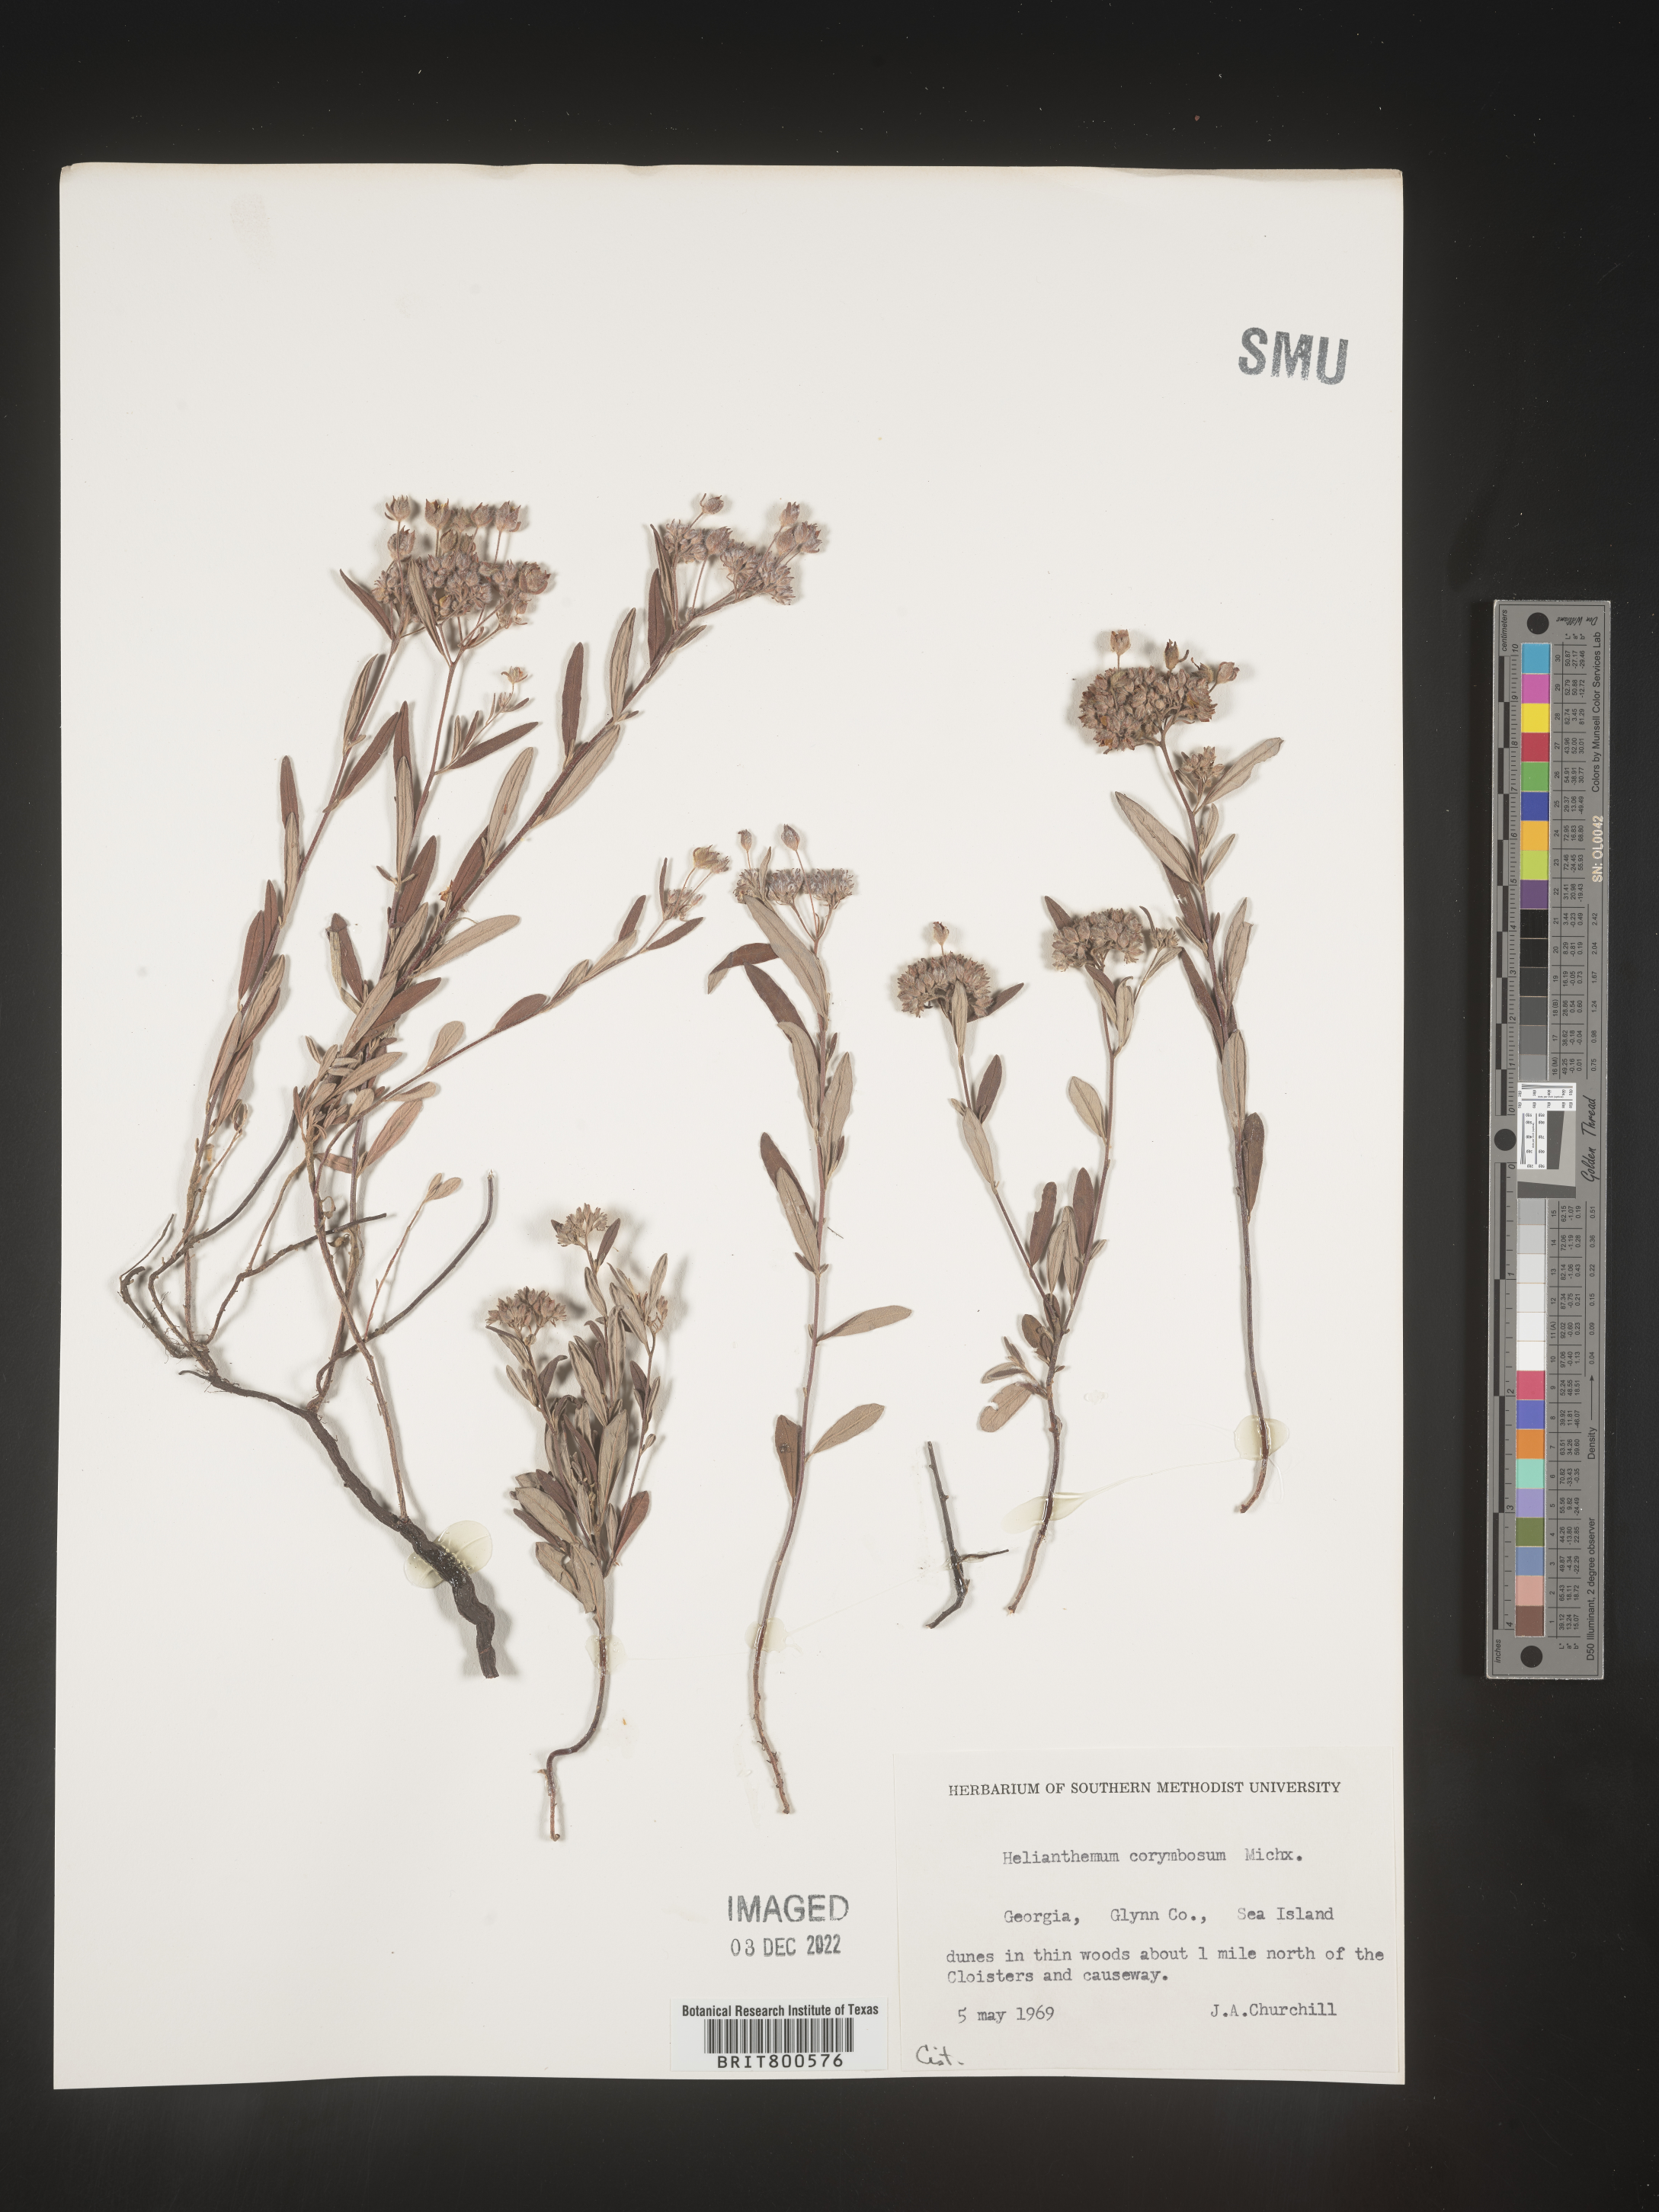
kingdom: Plantae
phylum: Tracheophyta
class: Magnoliopsida
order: Malvales
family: Cistaceae
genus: Crocanthemum
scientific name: Crocanthemum corymbosum
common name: Pinebarren sun-rose
